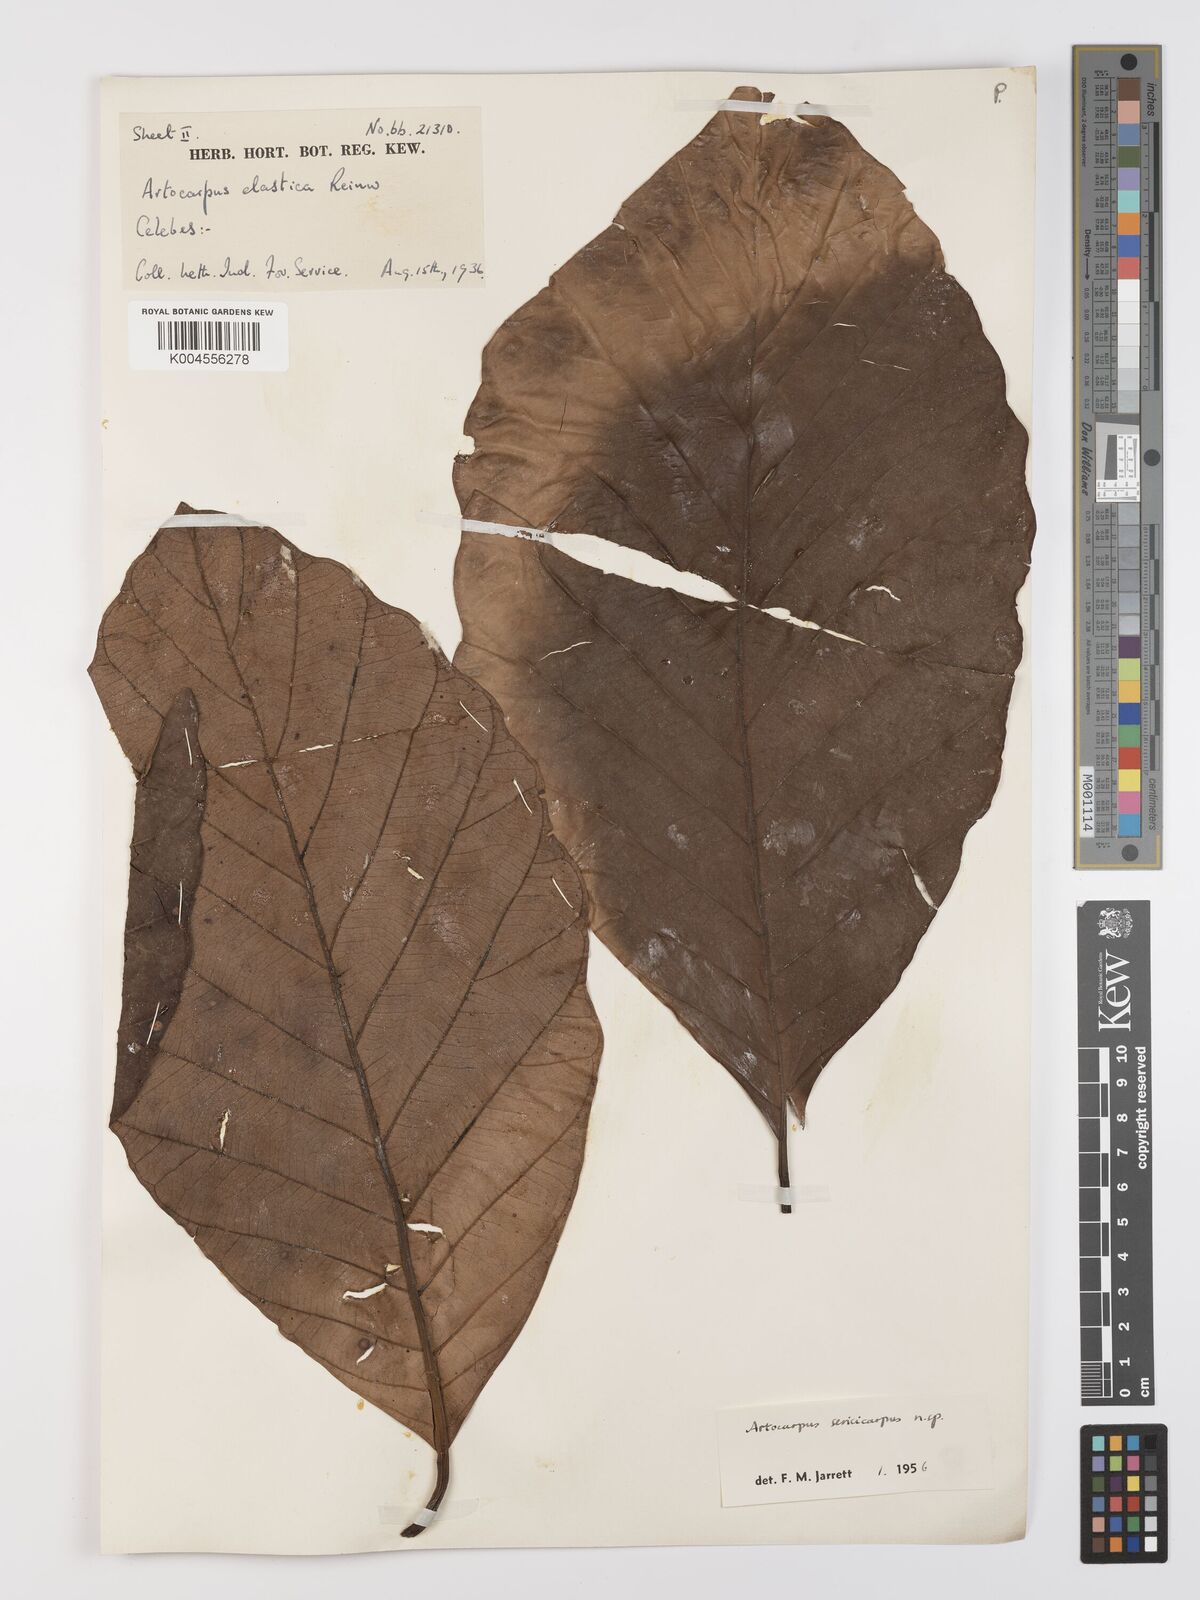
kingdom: Plantae
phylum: Tracheophyta
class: Magnoliopsida
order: Rosales
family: Moraceae
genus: Artocarpus
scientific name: Artocarpus sericicarpus
